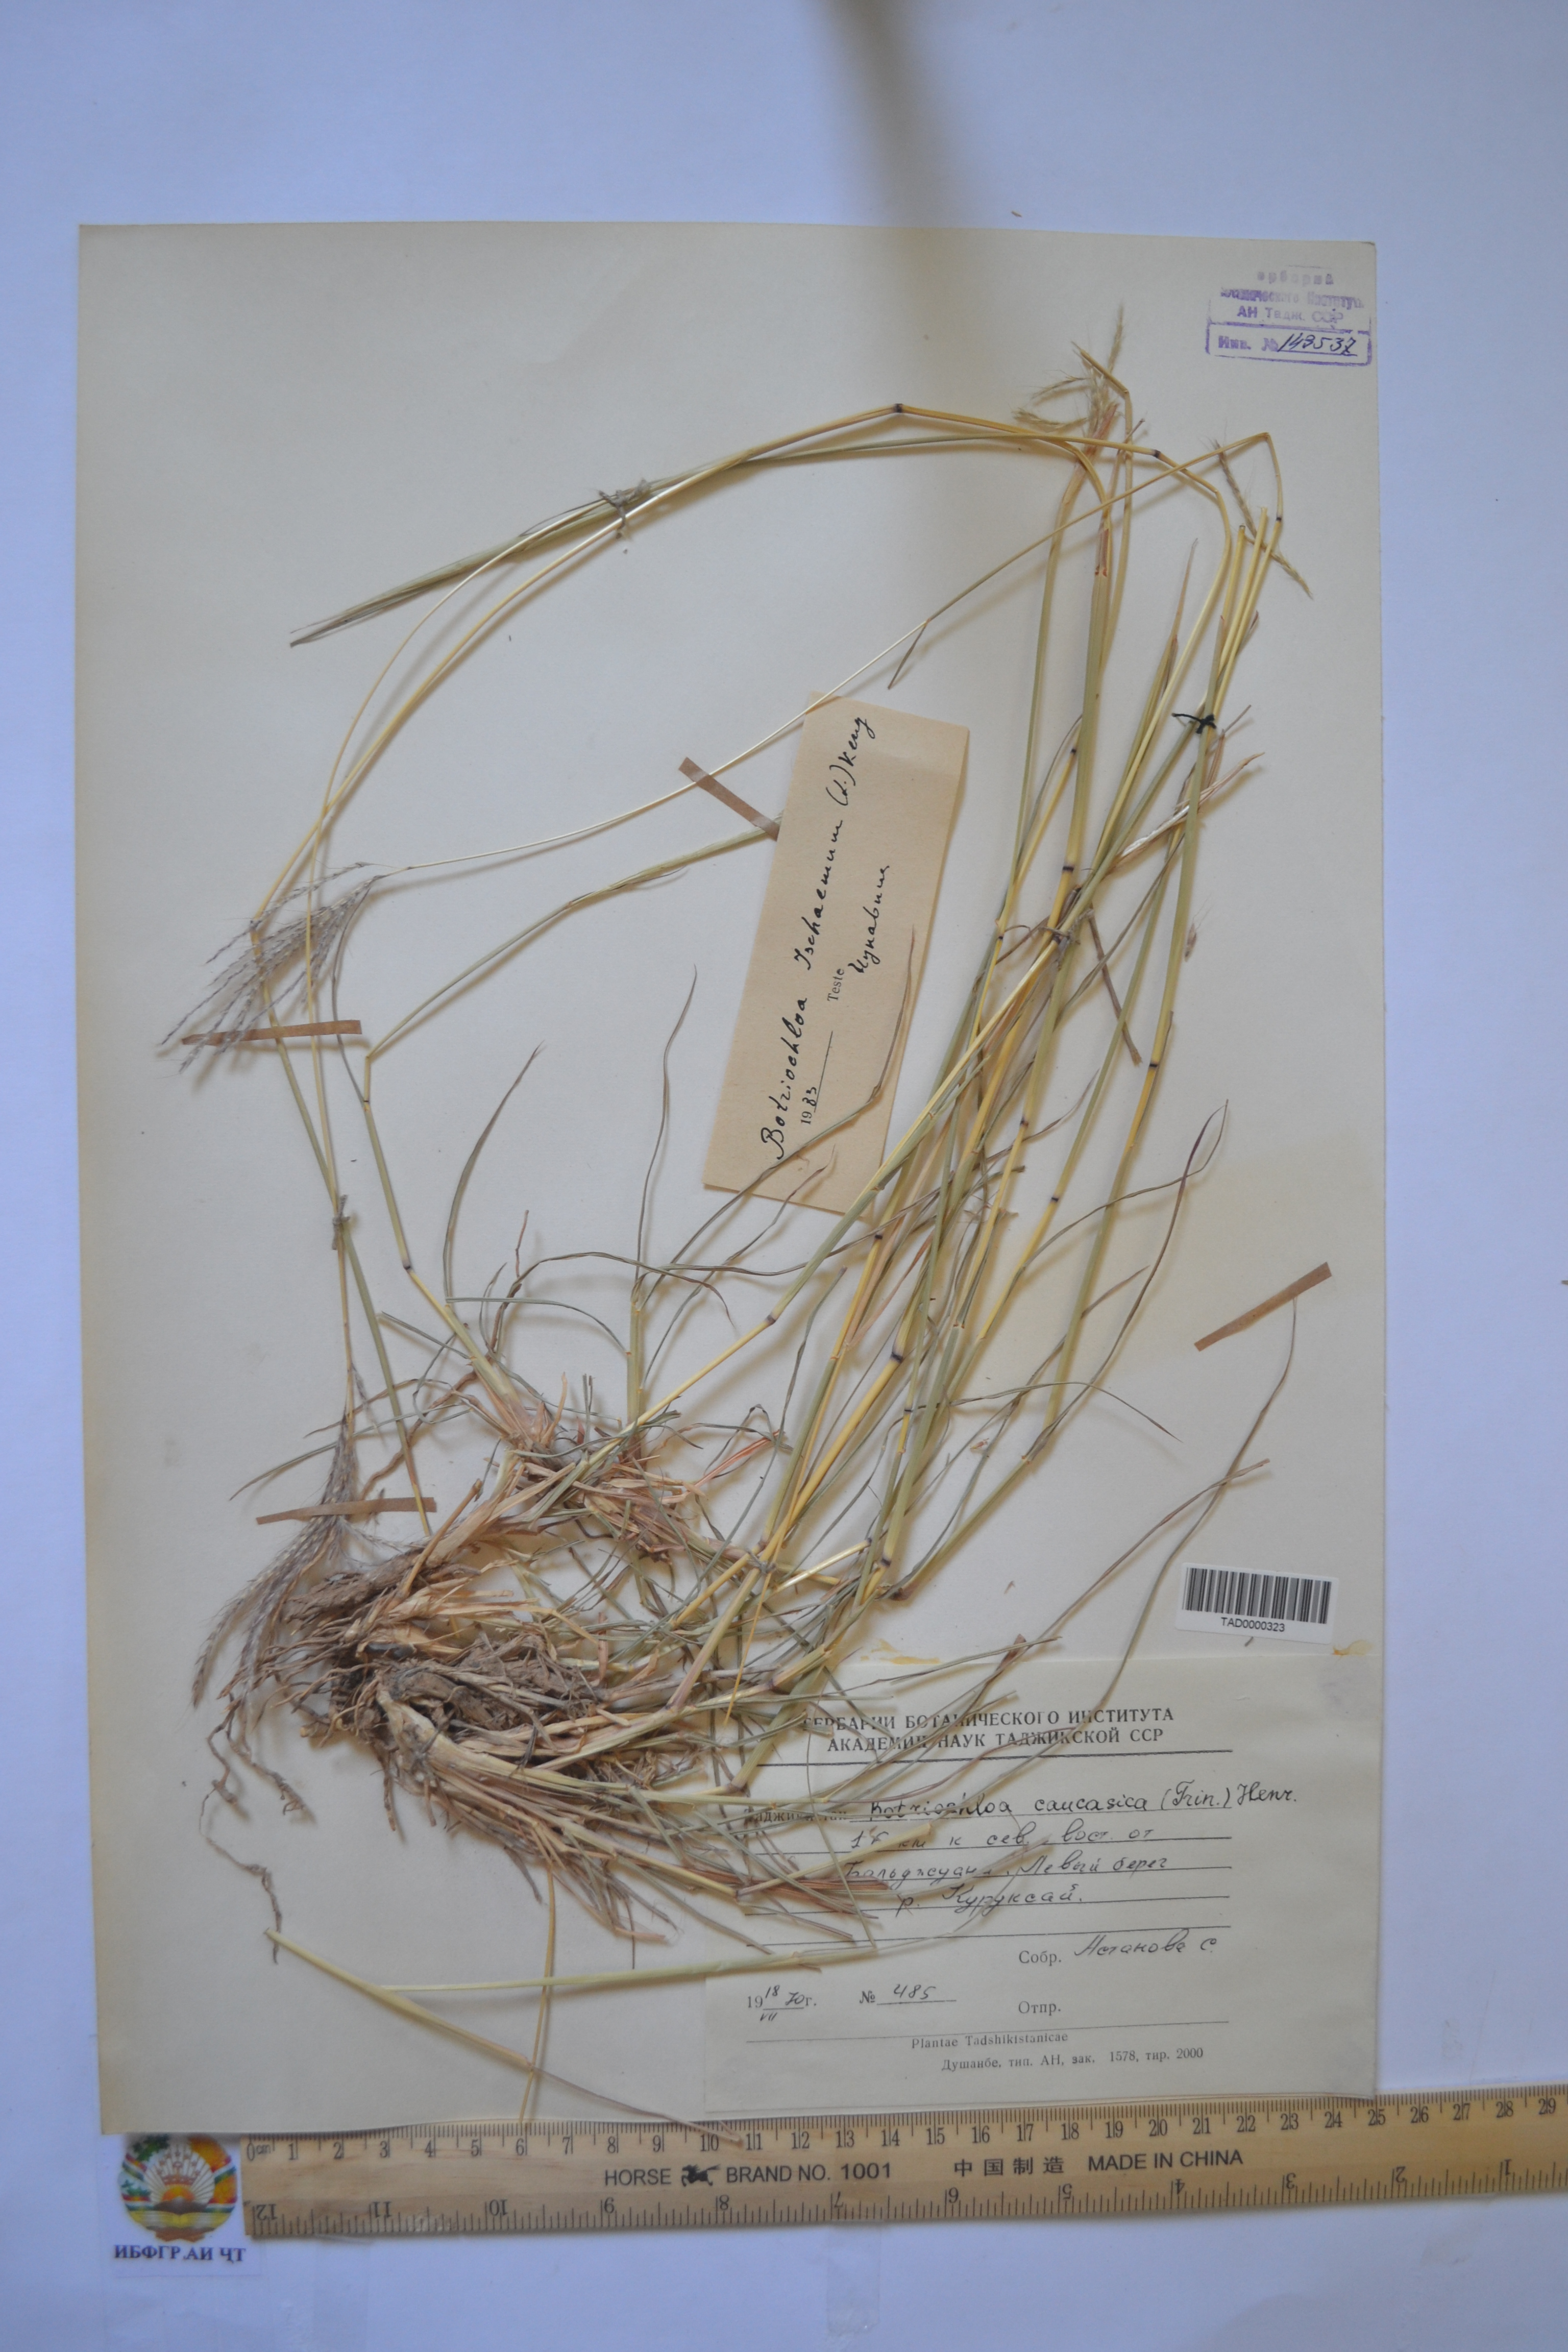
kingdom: Plantae
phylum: Tracheophyta
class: Liliopsida
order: Poales
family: Poaceae
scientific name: Poaceae
